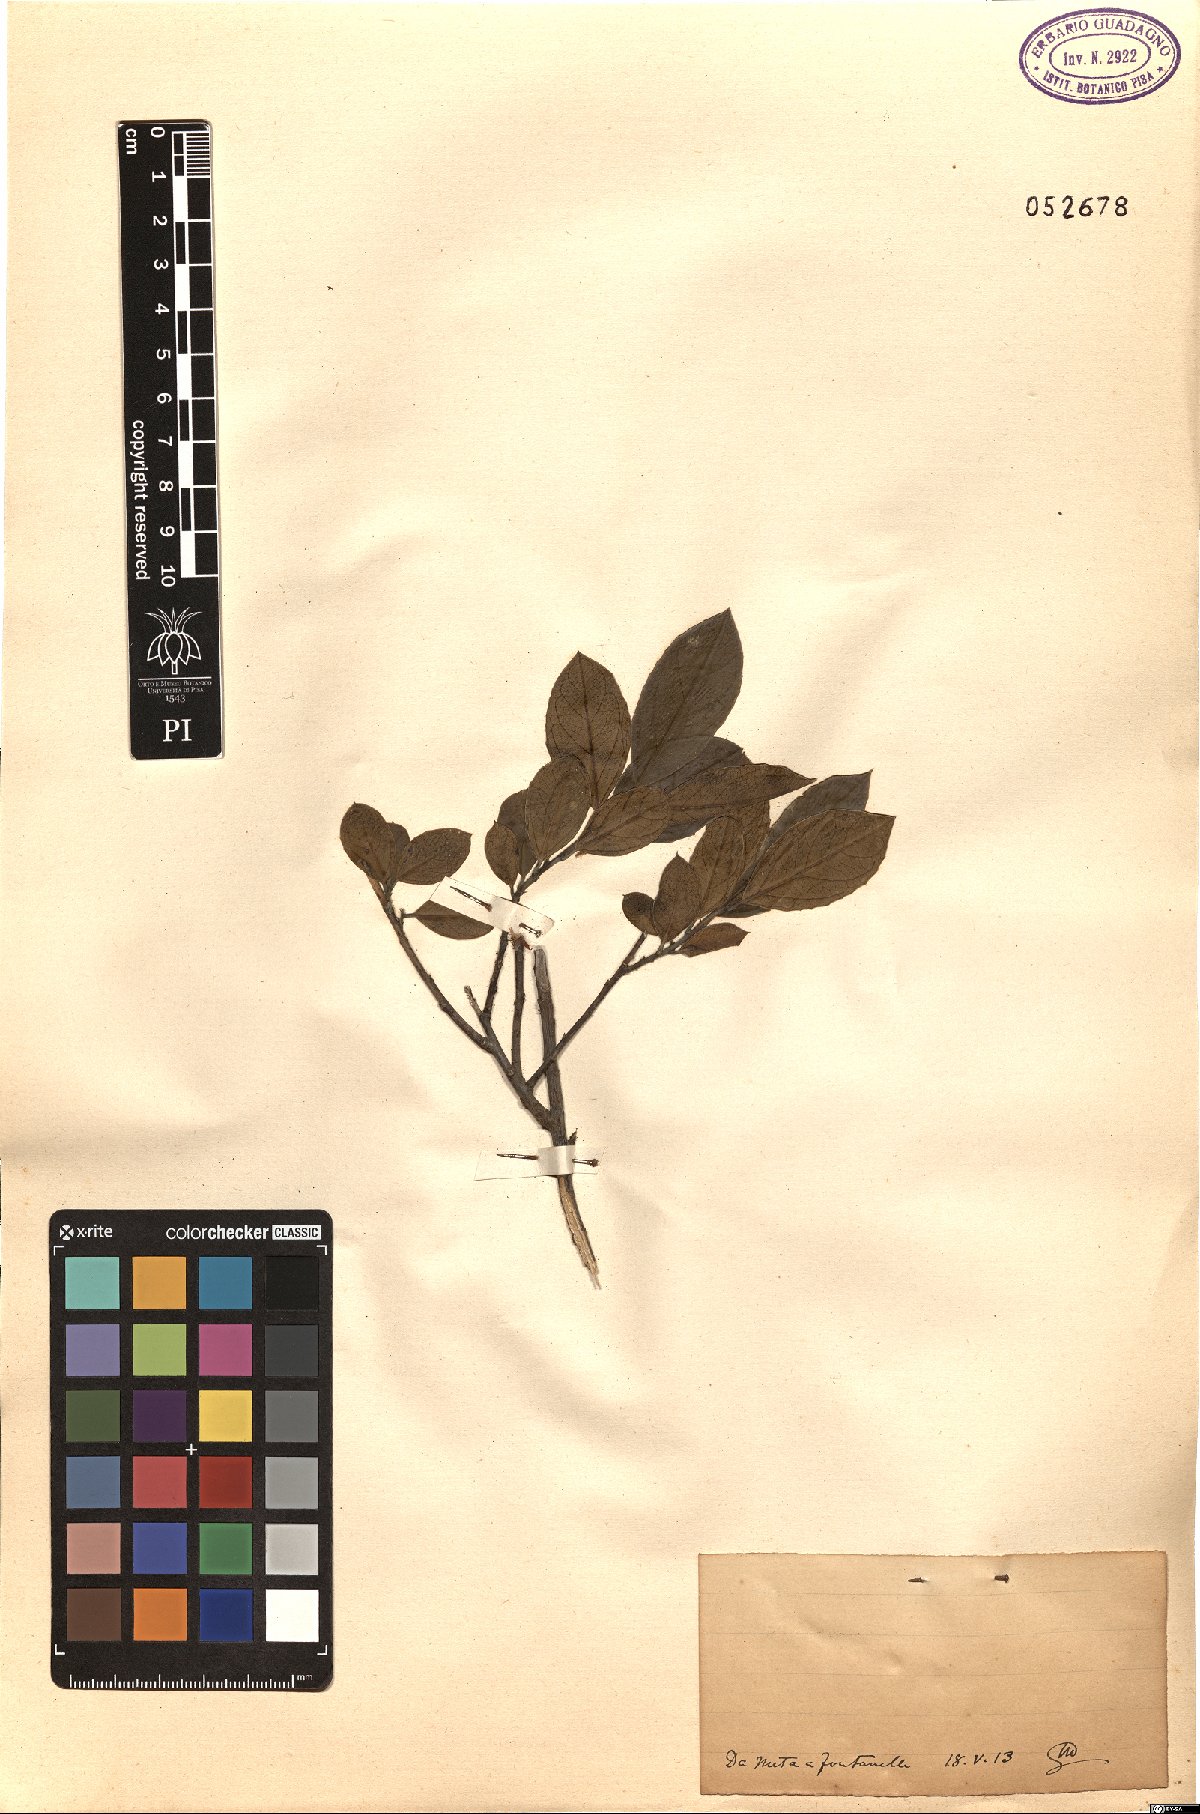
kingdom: Plantae
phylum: Tracheophyta
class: Magnoliopsida
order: Rosales
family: Rhamnaceae
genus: Rhamnus
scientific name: Rhamnus
